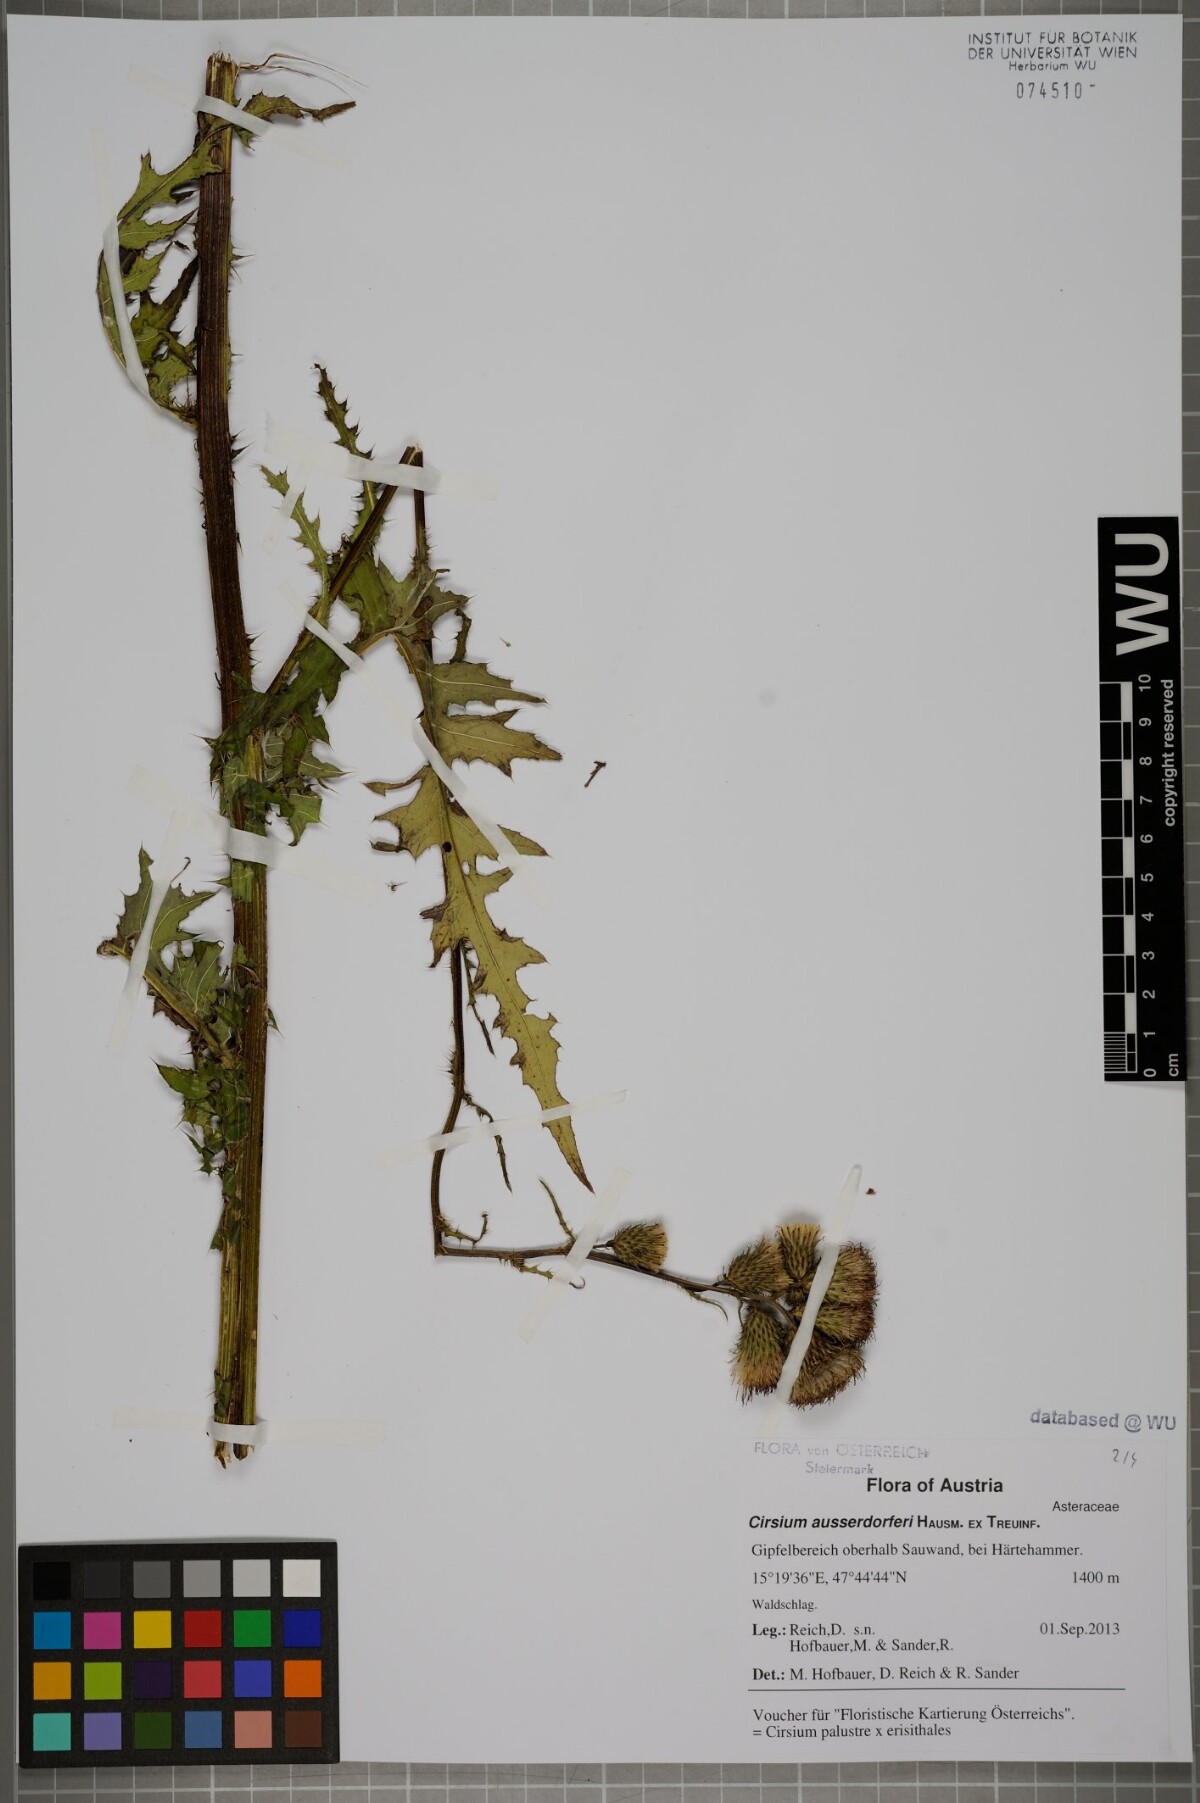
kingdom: Plantae
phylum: Tracheophyta
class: Magnoliopsida
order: Asterales
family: Asteraceae
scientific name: Asteraceae
